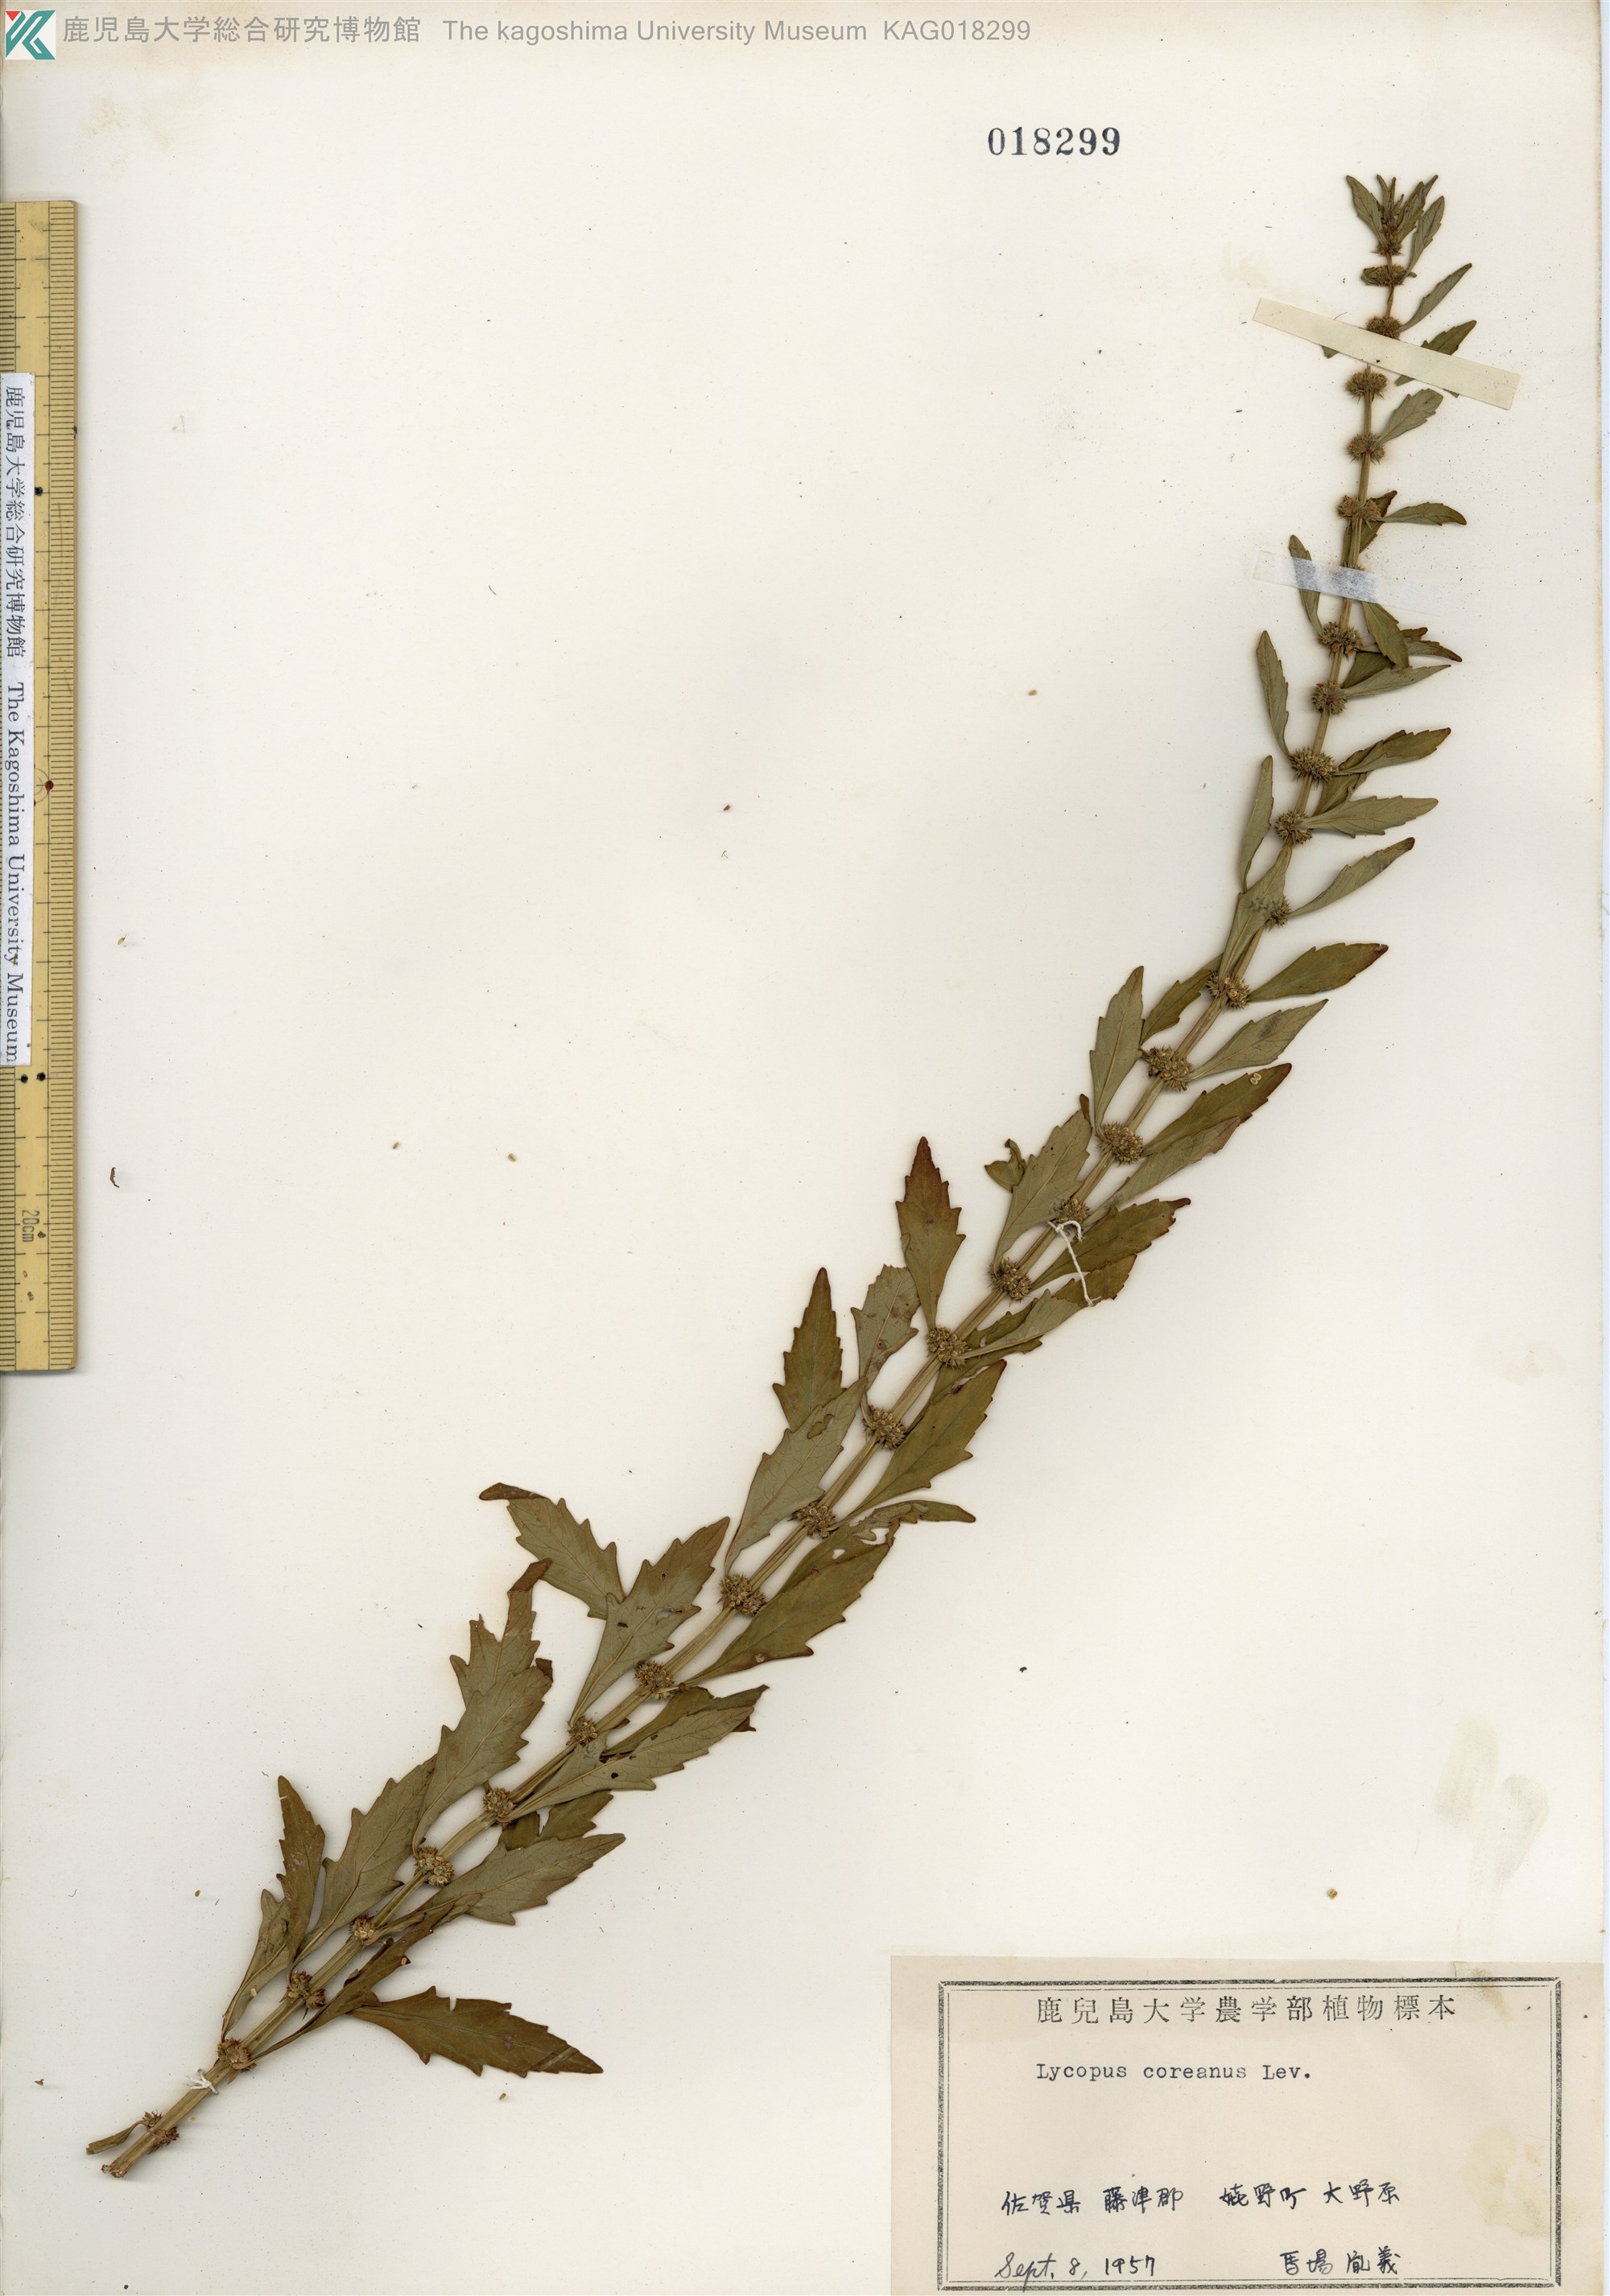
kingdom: Plantae
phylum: Tracheophyta
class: Magnoliopsida
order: Lamiales
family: Lamiaceae
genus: Lycopus
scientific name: Lycopus cavaleriei
